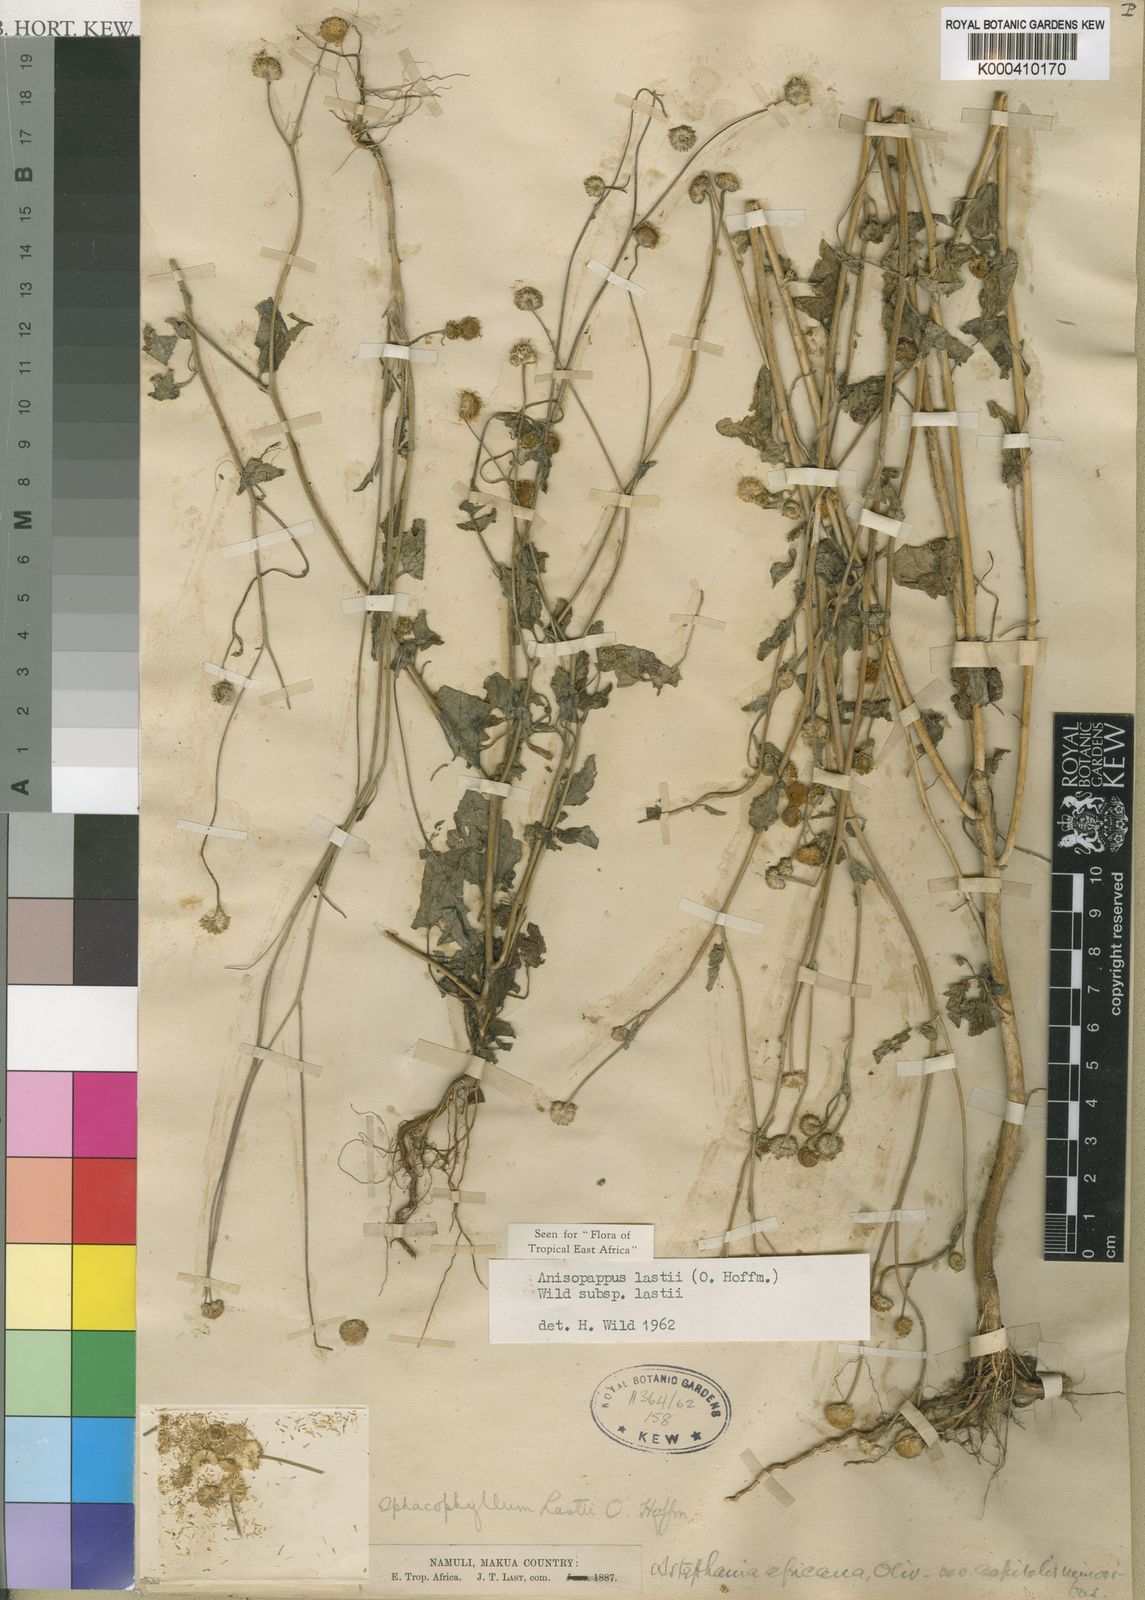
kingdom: Plantae
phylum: Tracheophyta
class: Magnoliopsida
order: Asterales
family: Asteraceae
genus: Anisopappus
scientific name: Anisopappus chinensis
